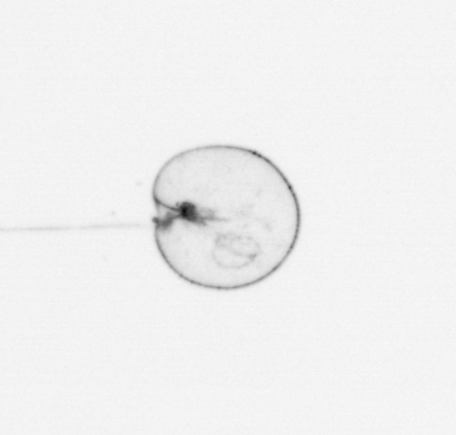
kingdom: Chromista
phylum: Myzozoa
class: Dinophyceae
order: Noctilucales
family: Noctilucaceae
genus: Noctiluca
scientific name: Noctiluca scintillans
